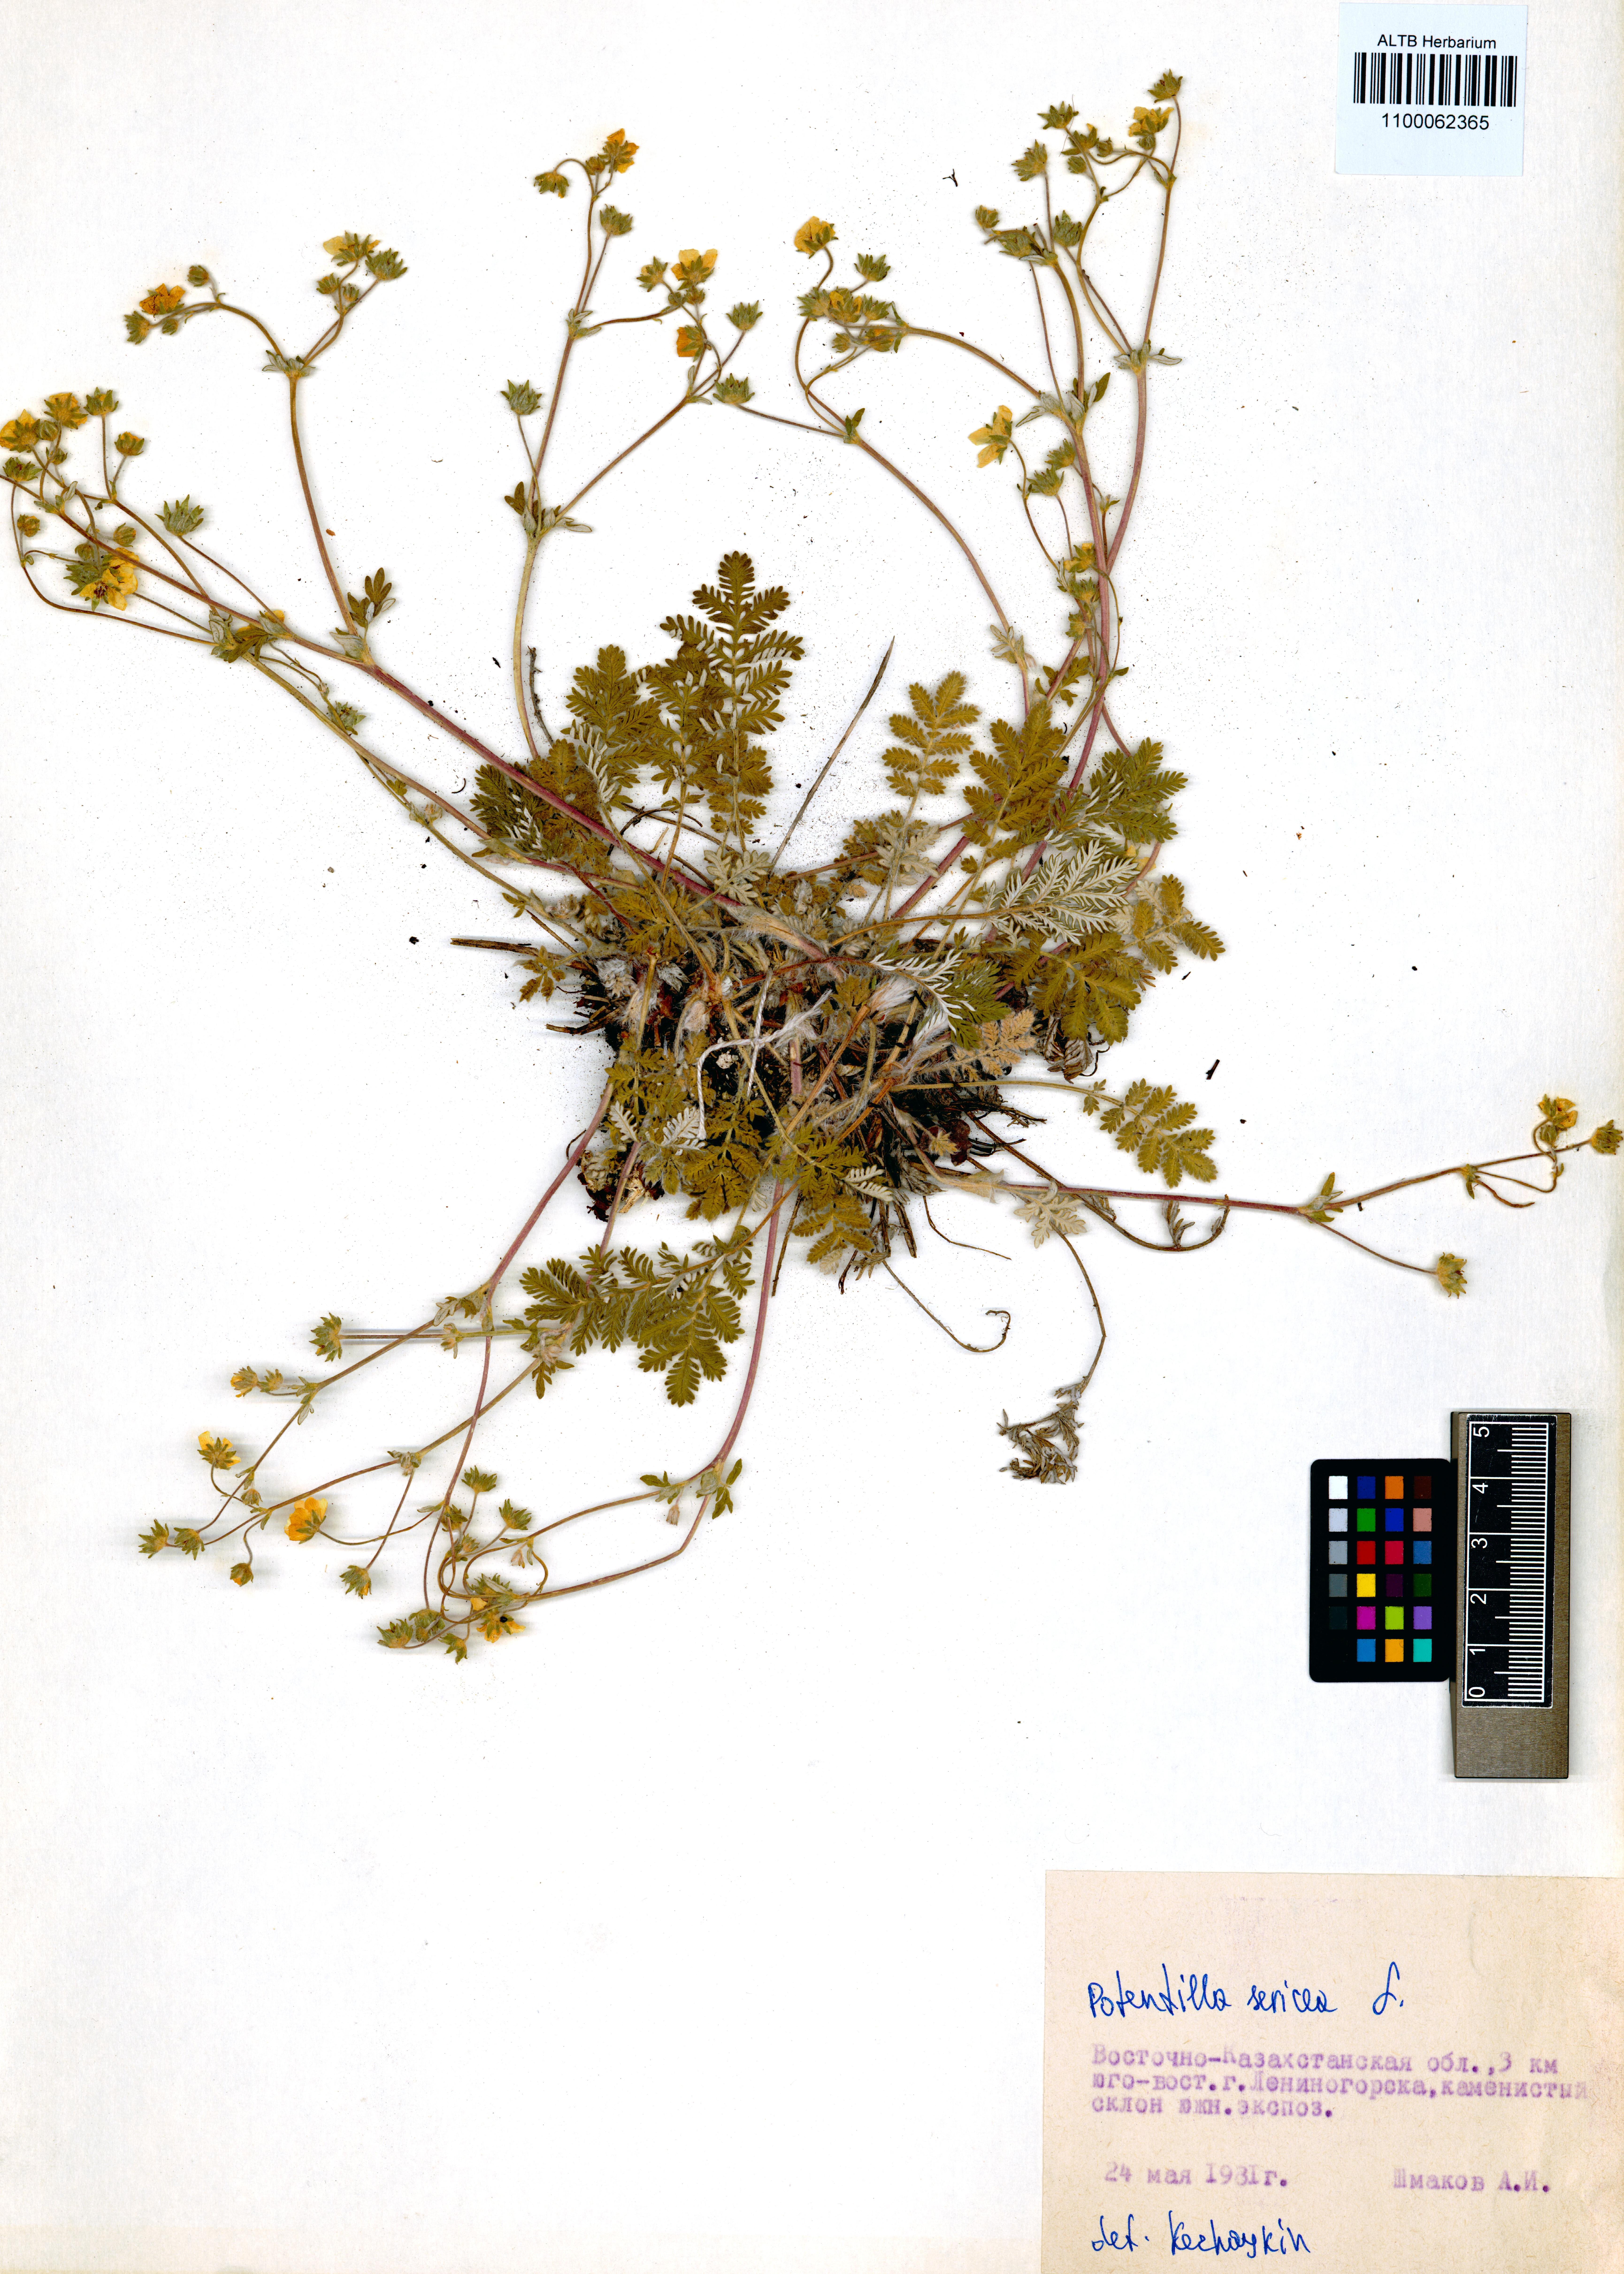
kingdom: Plantae
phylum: Tracheophyta
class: Magnoliopsida
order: Rosales
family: Rosaceae
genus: Potentilla
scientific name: Potentilla sericea
